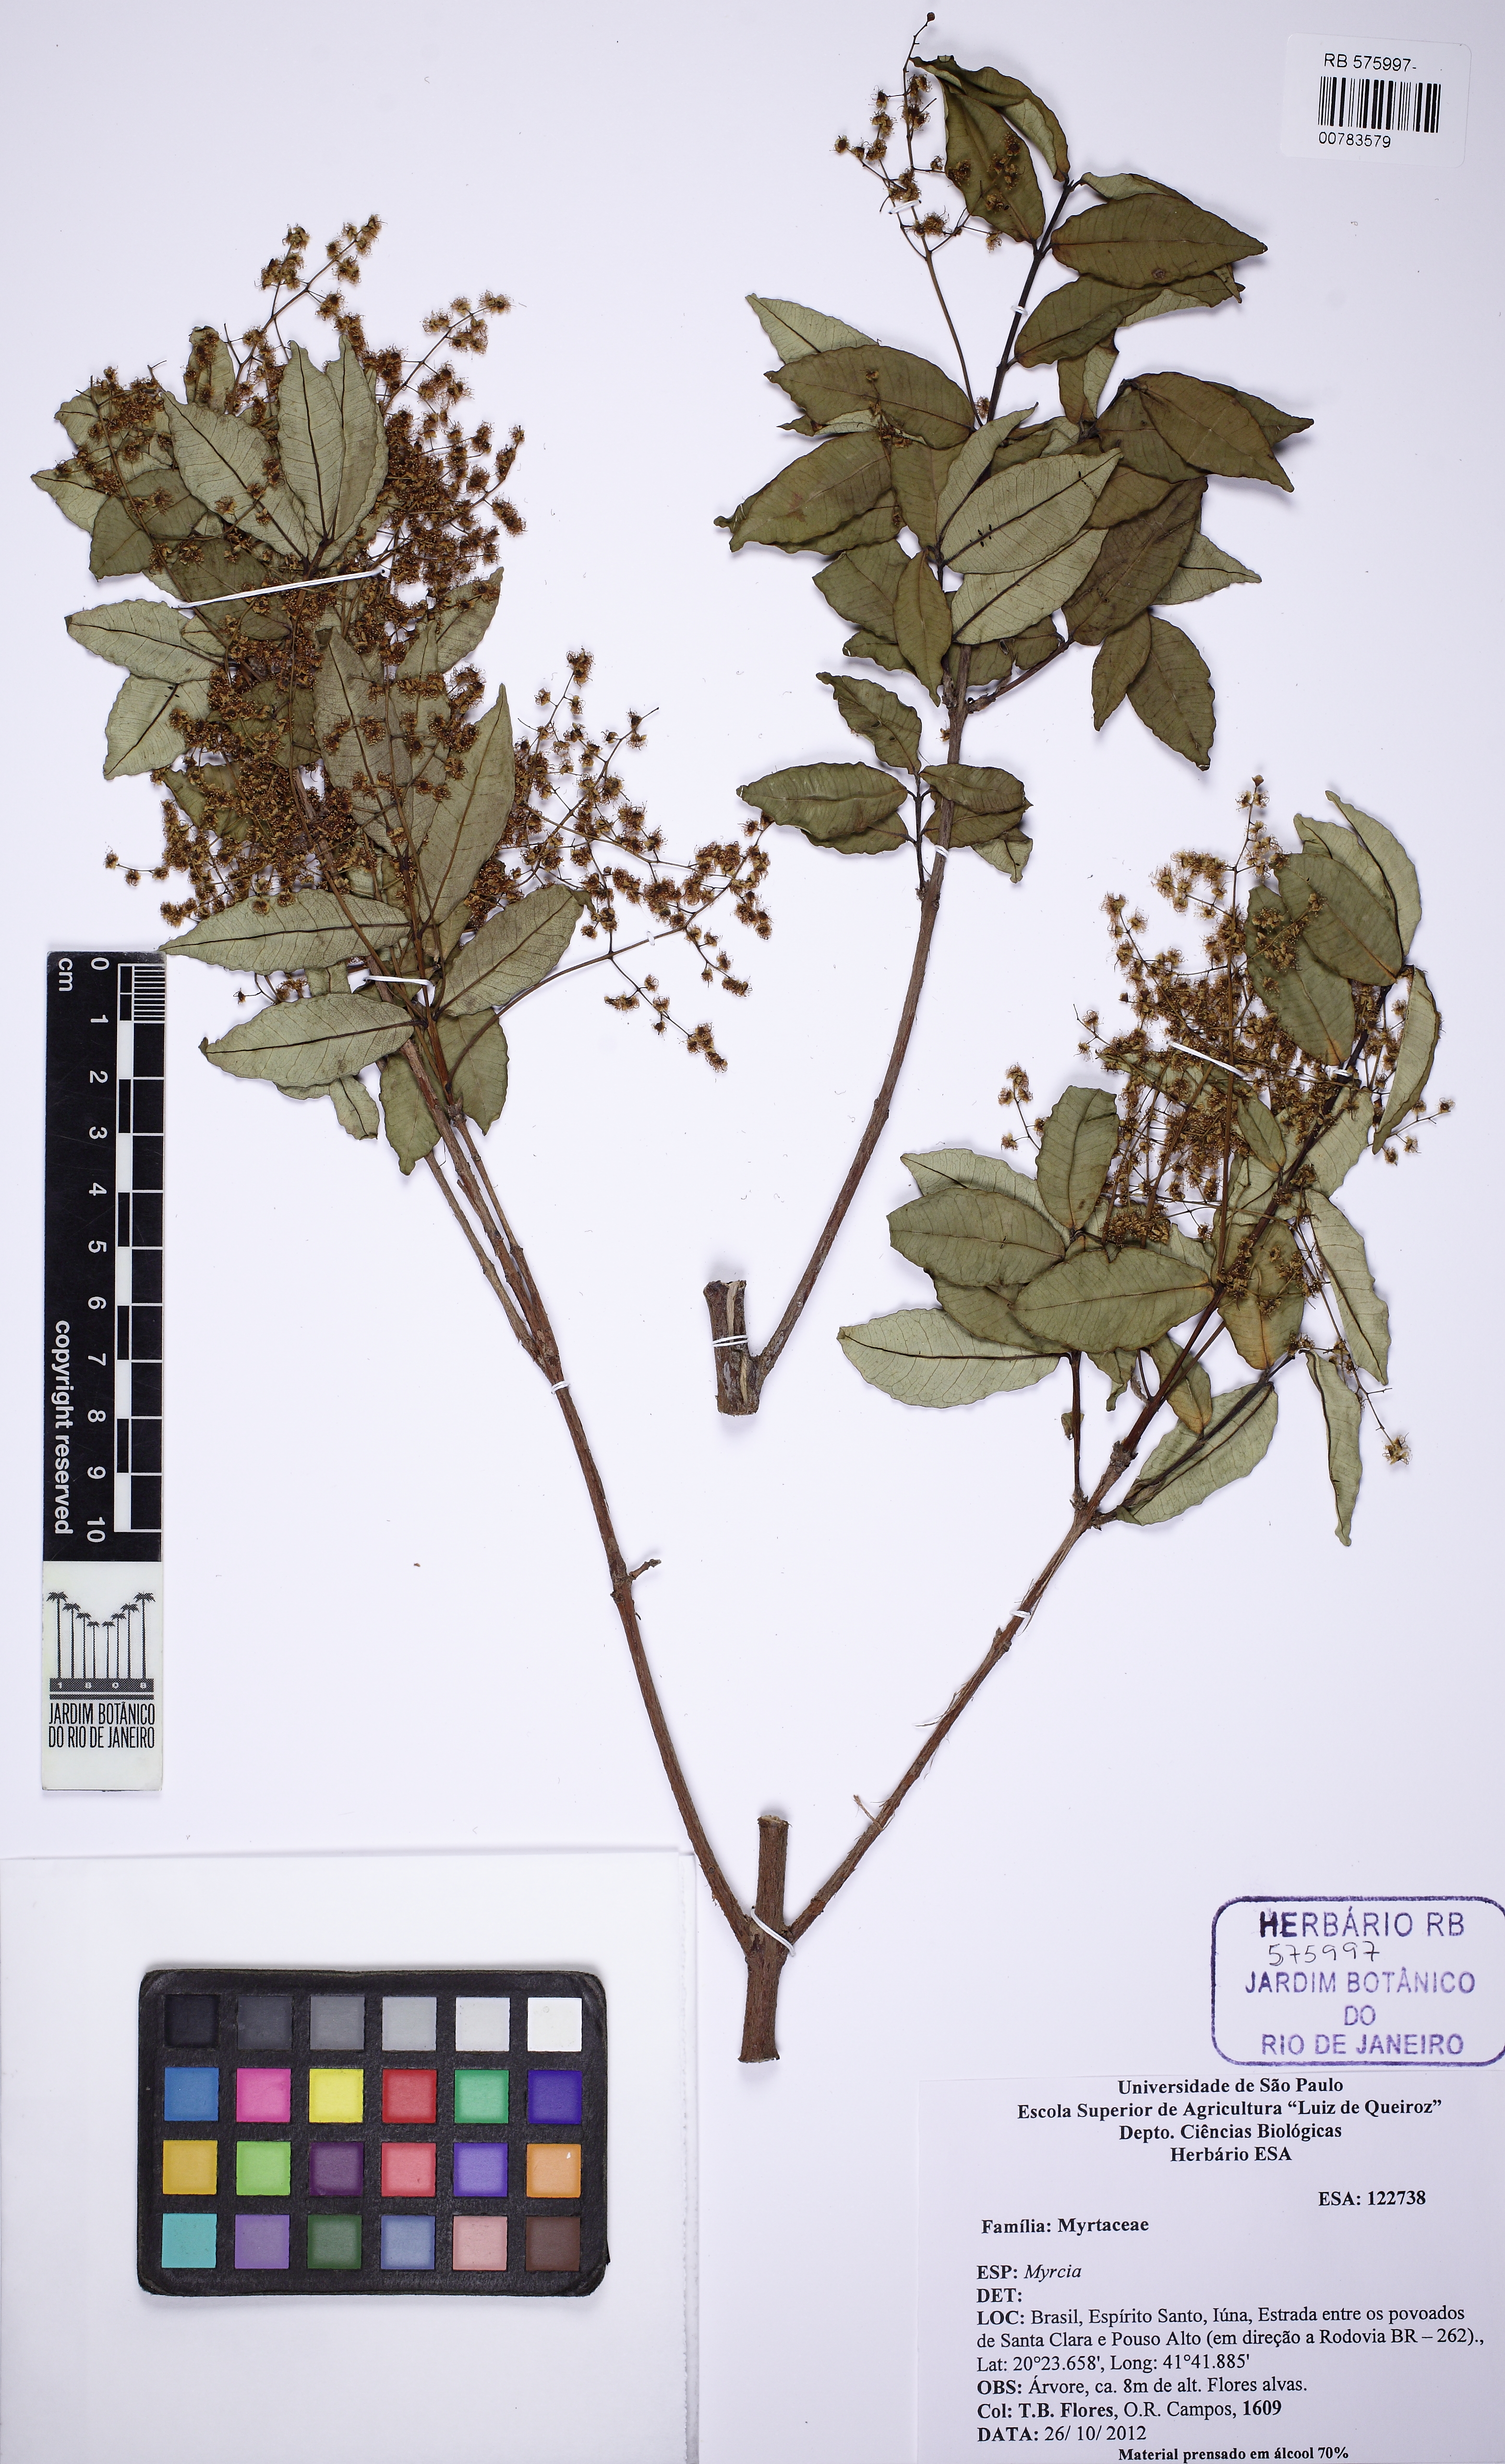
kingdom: Plantae
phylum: Tracheophyta
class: Magnoliopsida
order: Myrtales
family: Myrtaceae
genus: Myrcia
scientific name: Myrcia laruotteana
